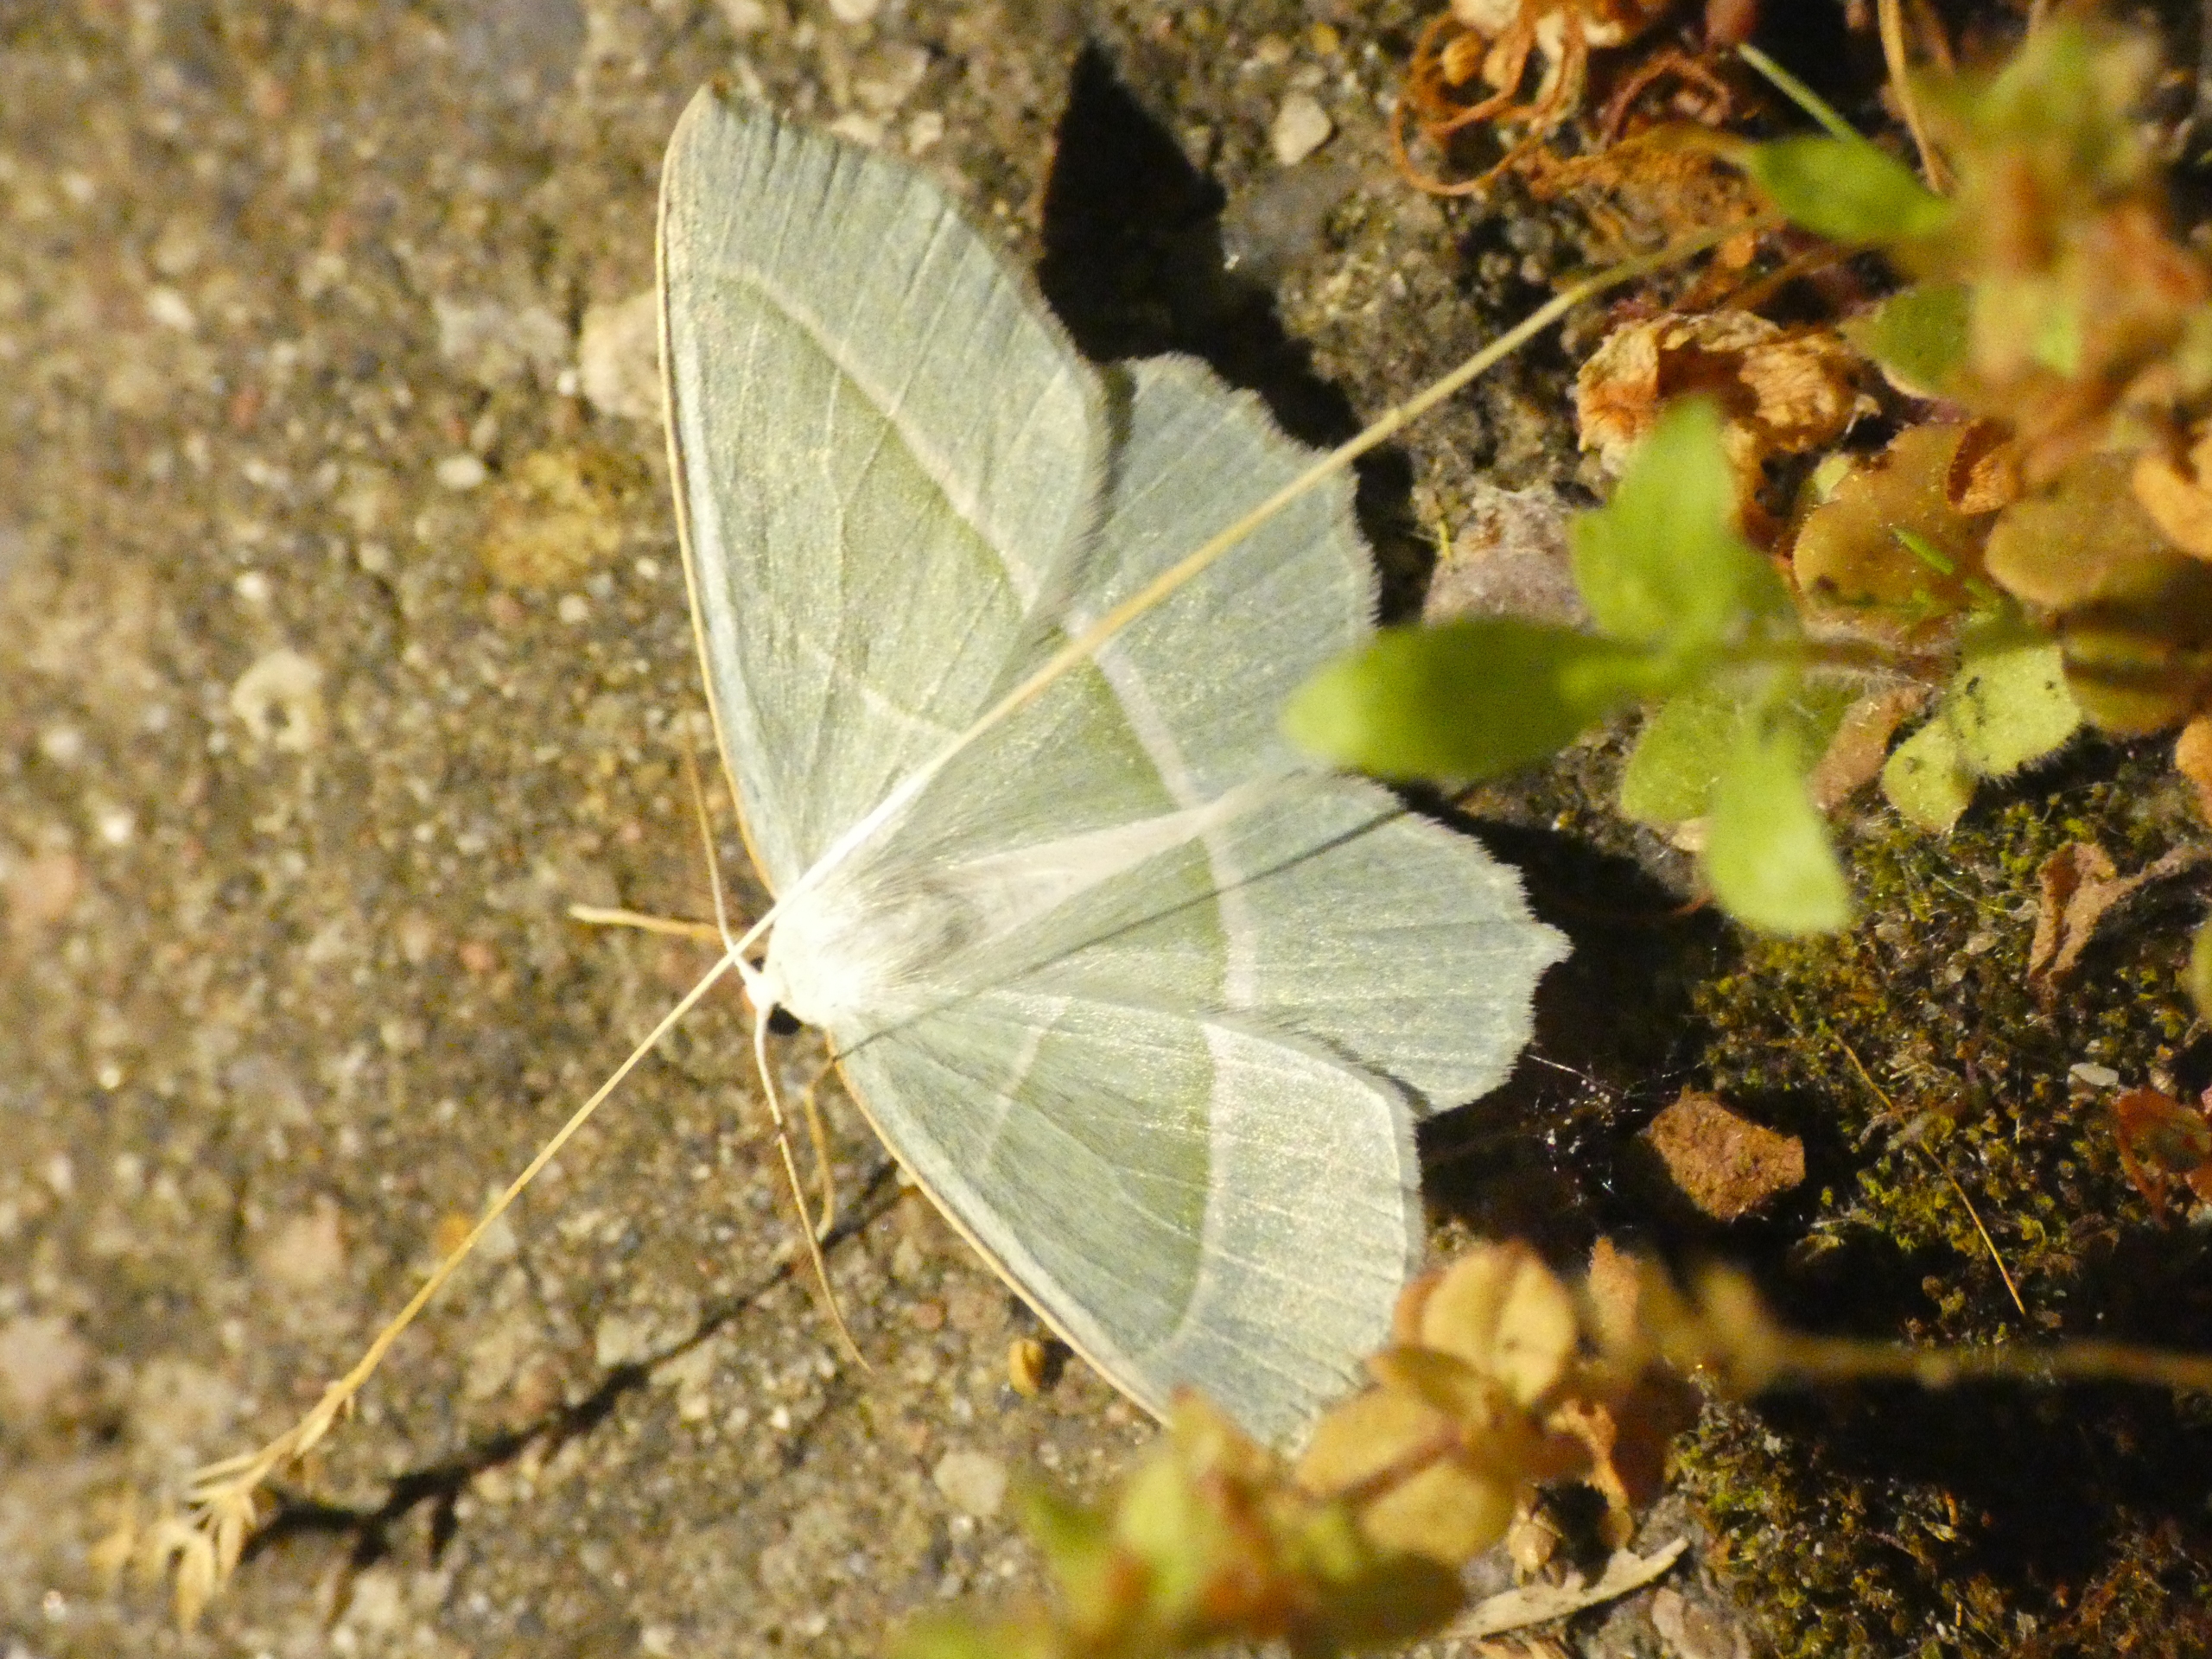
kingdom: Animalia
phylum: Arthropoda
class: Insecta
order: Lepidoptera
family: Geometridae
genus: Campaea
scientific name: Campaea margaritaria
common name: Perlemåler
